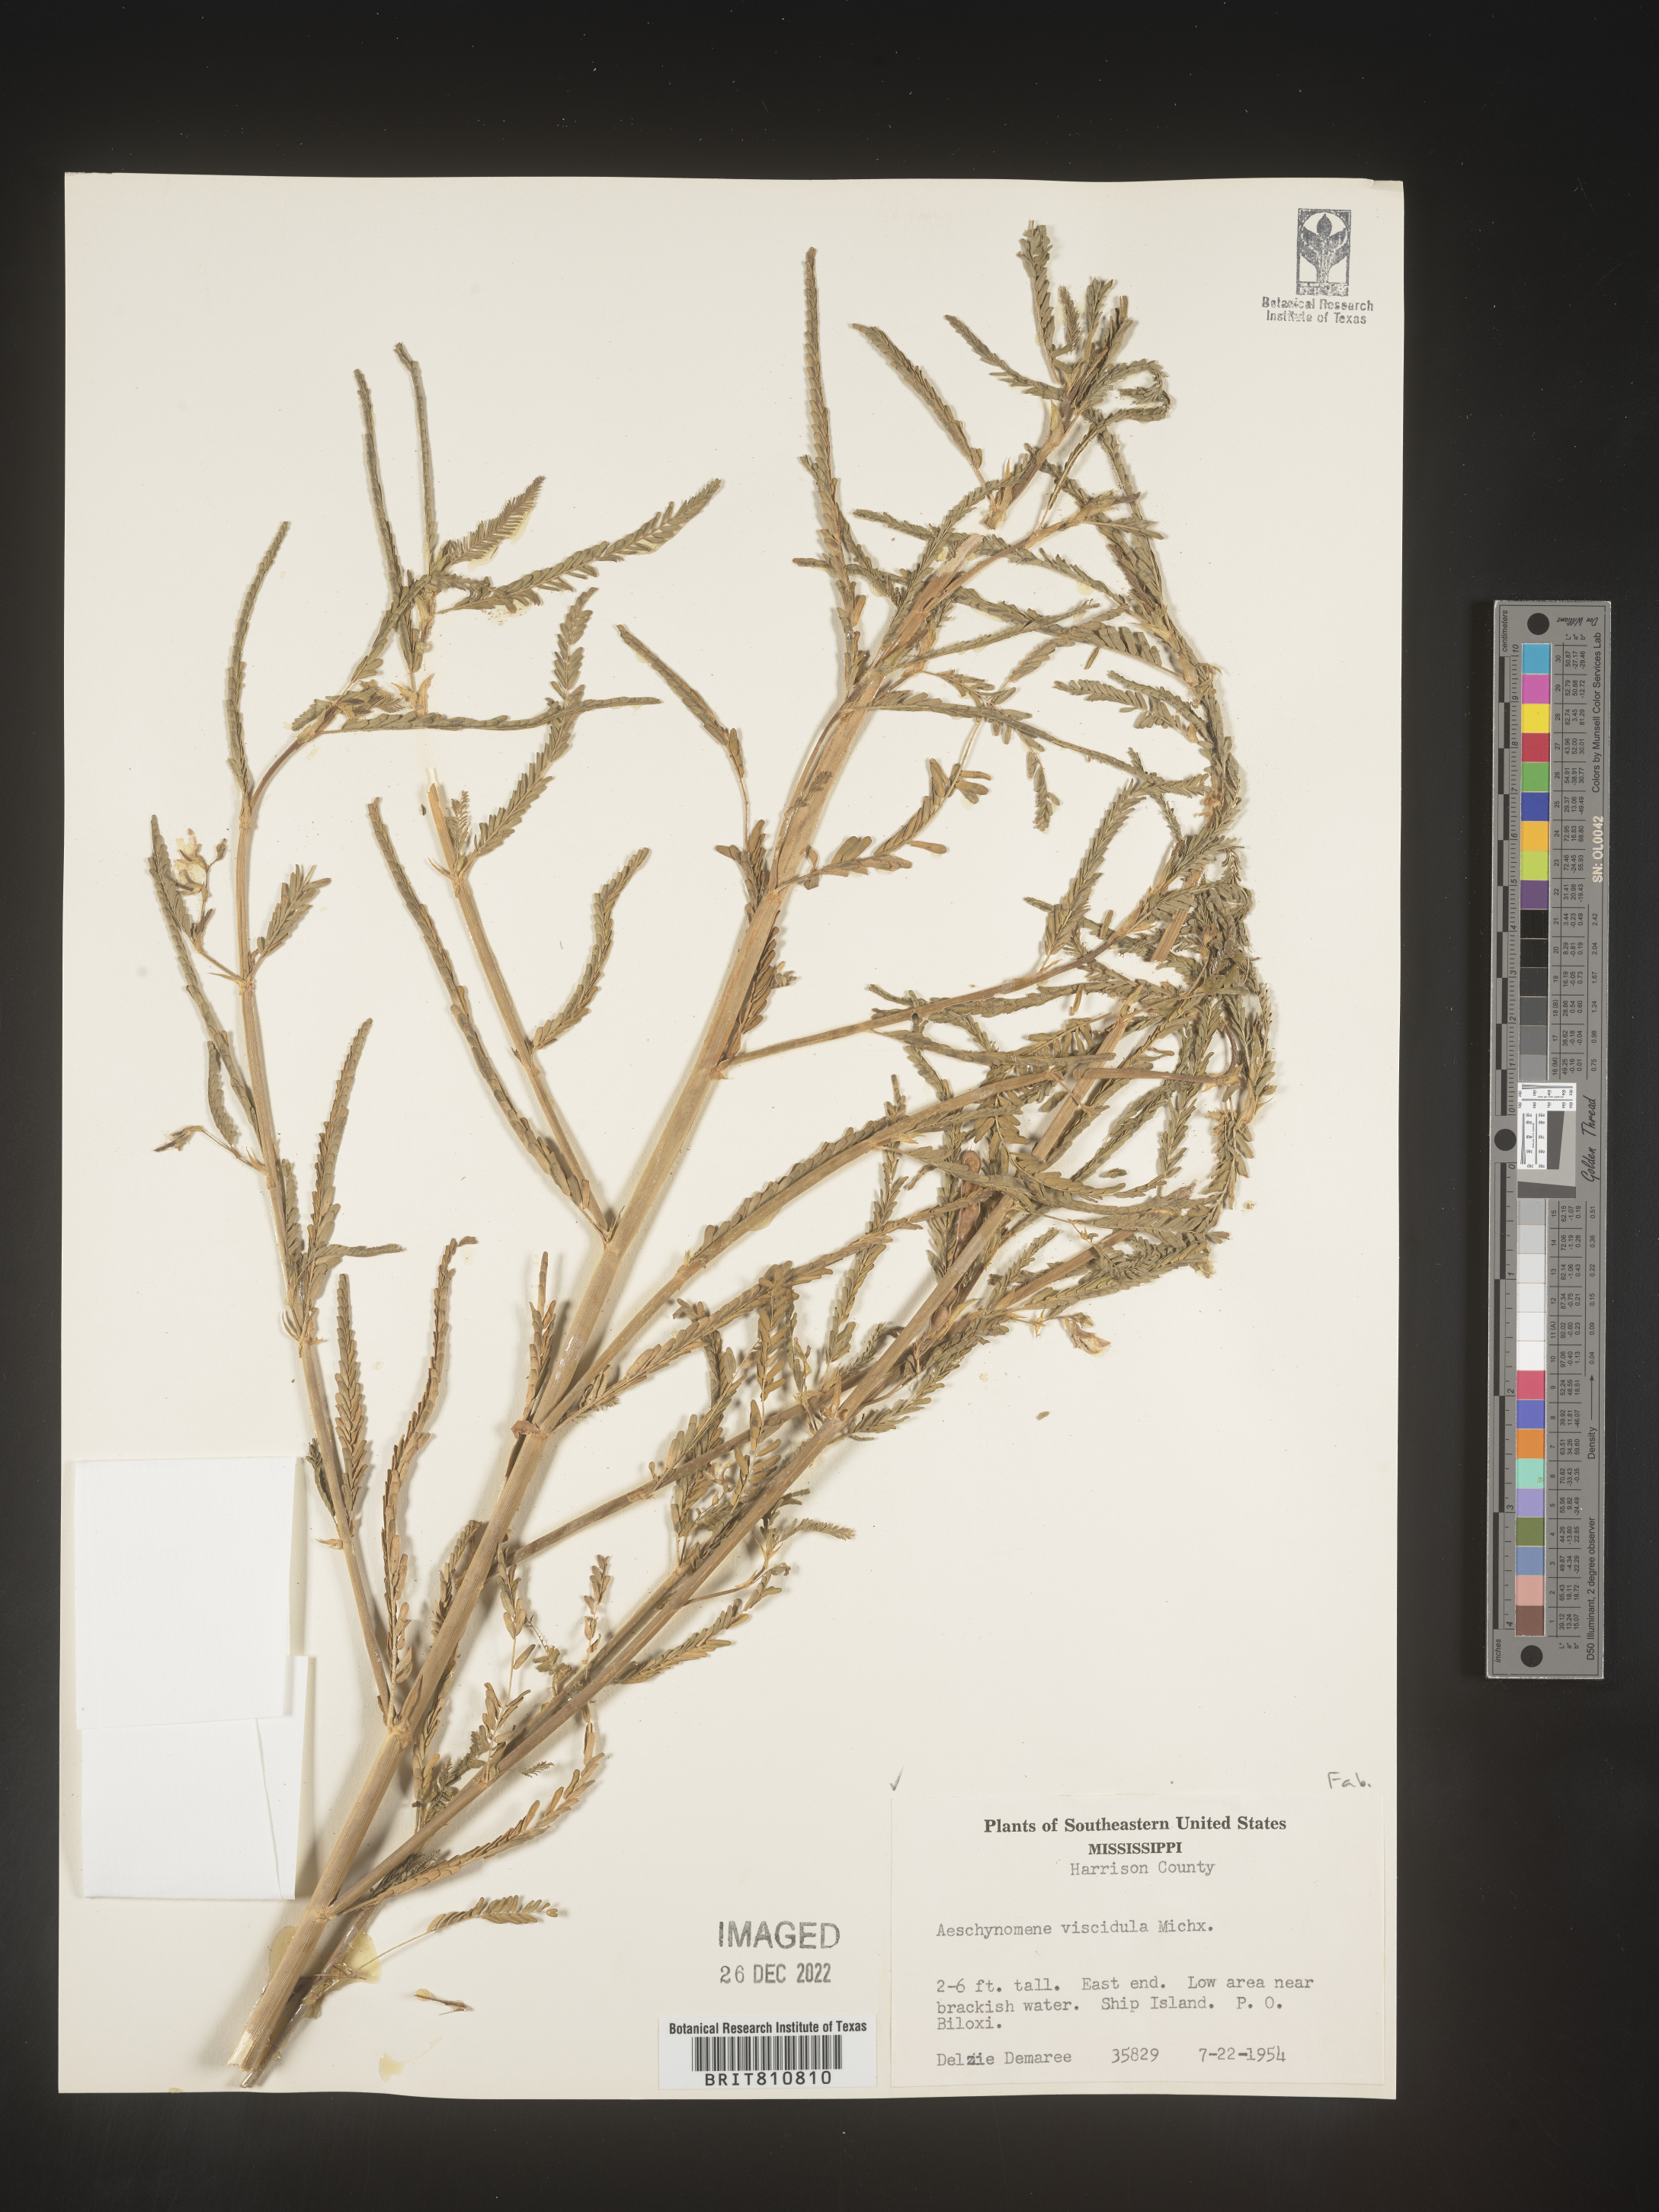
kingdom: Plantae
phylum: Tracheophyta
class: Magnoliopsida
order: Fabales
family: Fabaceae
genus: Aeschynomene
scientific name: Aeschynomene indica
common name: Indian jointvetch
